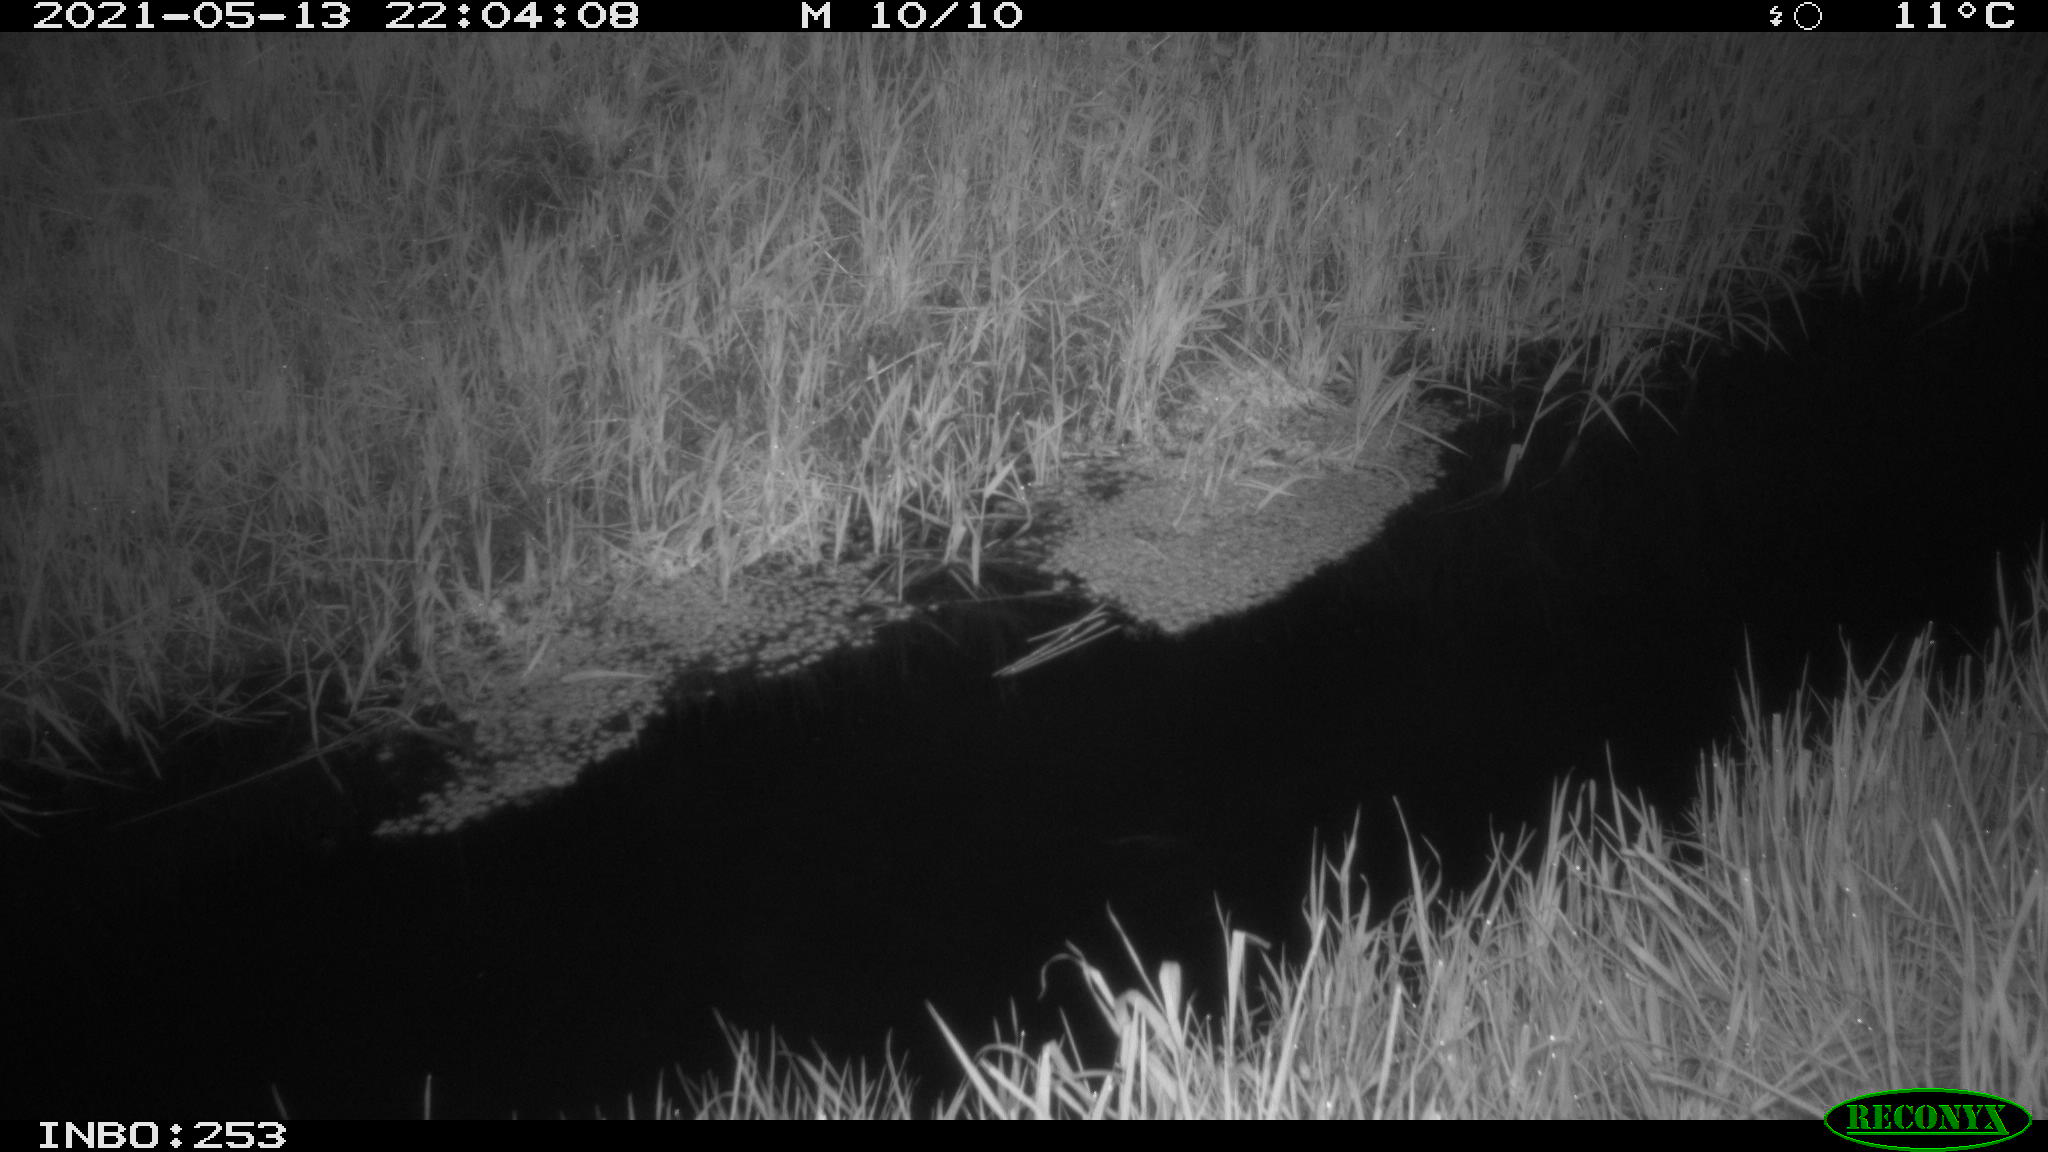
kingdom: Animalia
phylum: Chordata
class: Aves
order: Anseriformes
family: Anatidae
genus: Anas
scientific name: Anas platyrhynchos
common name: Mallard
